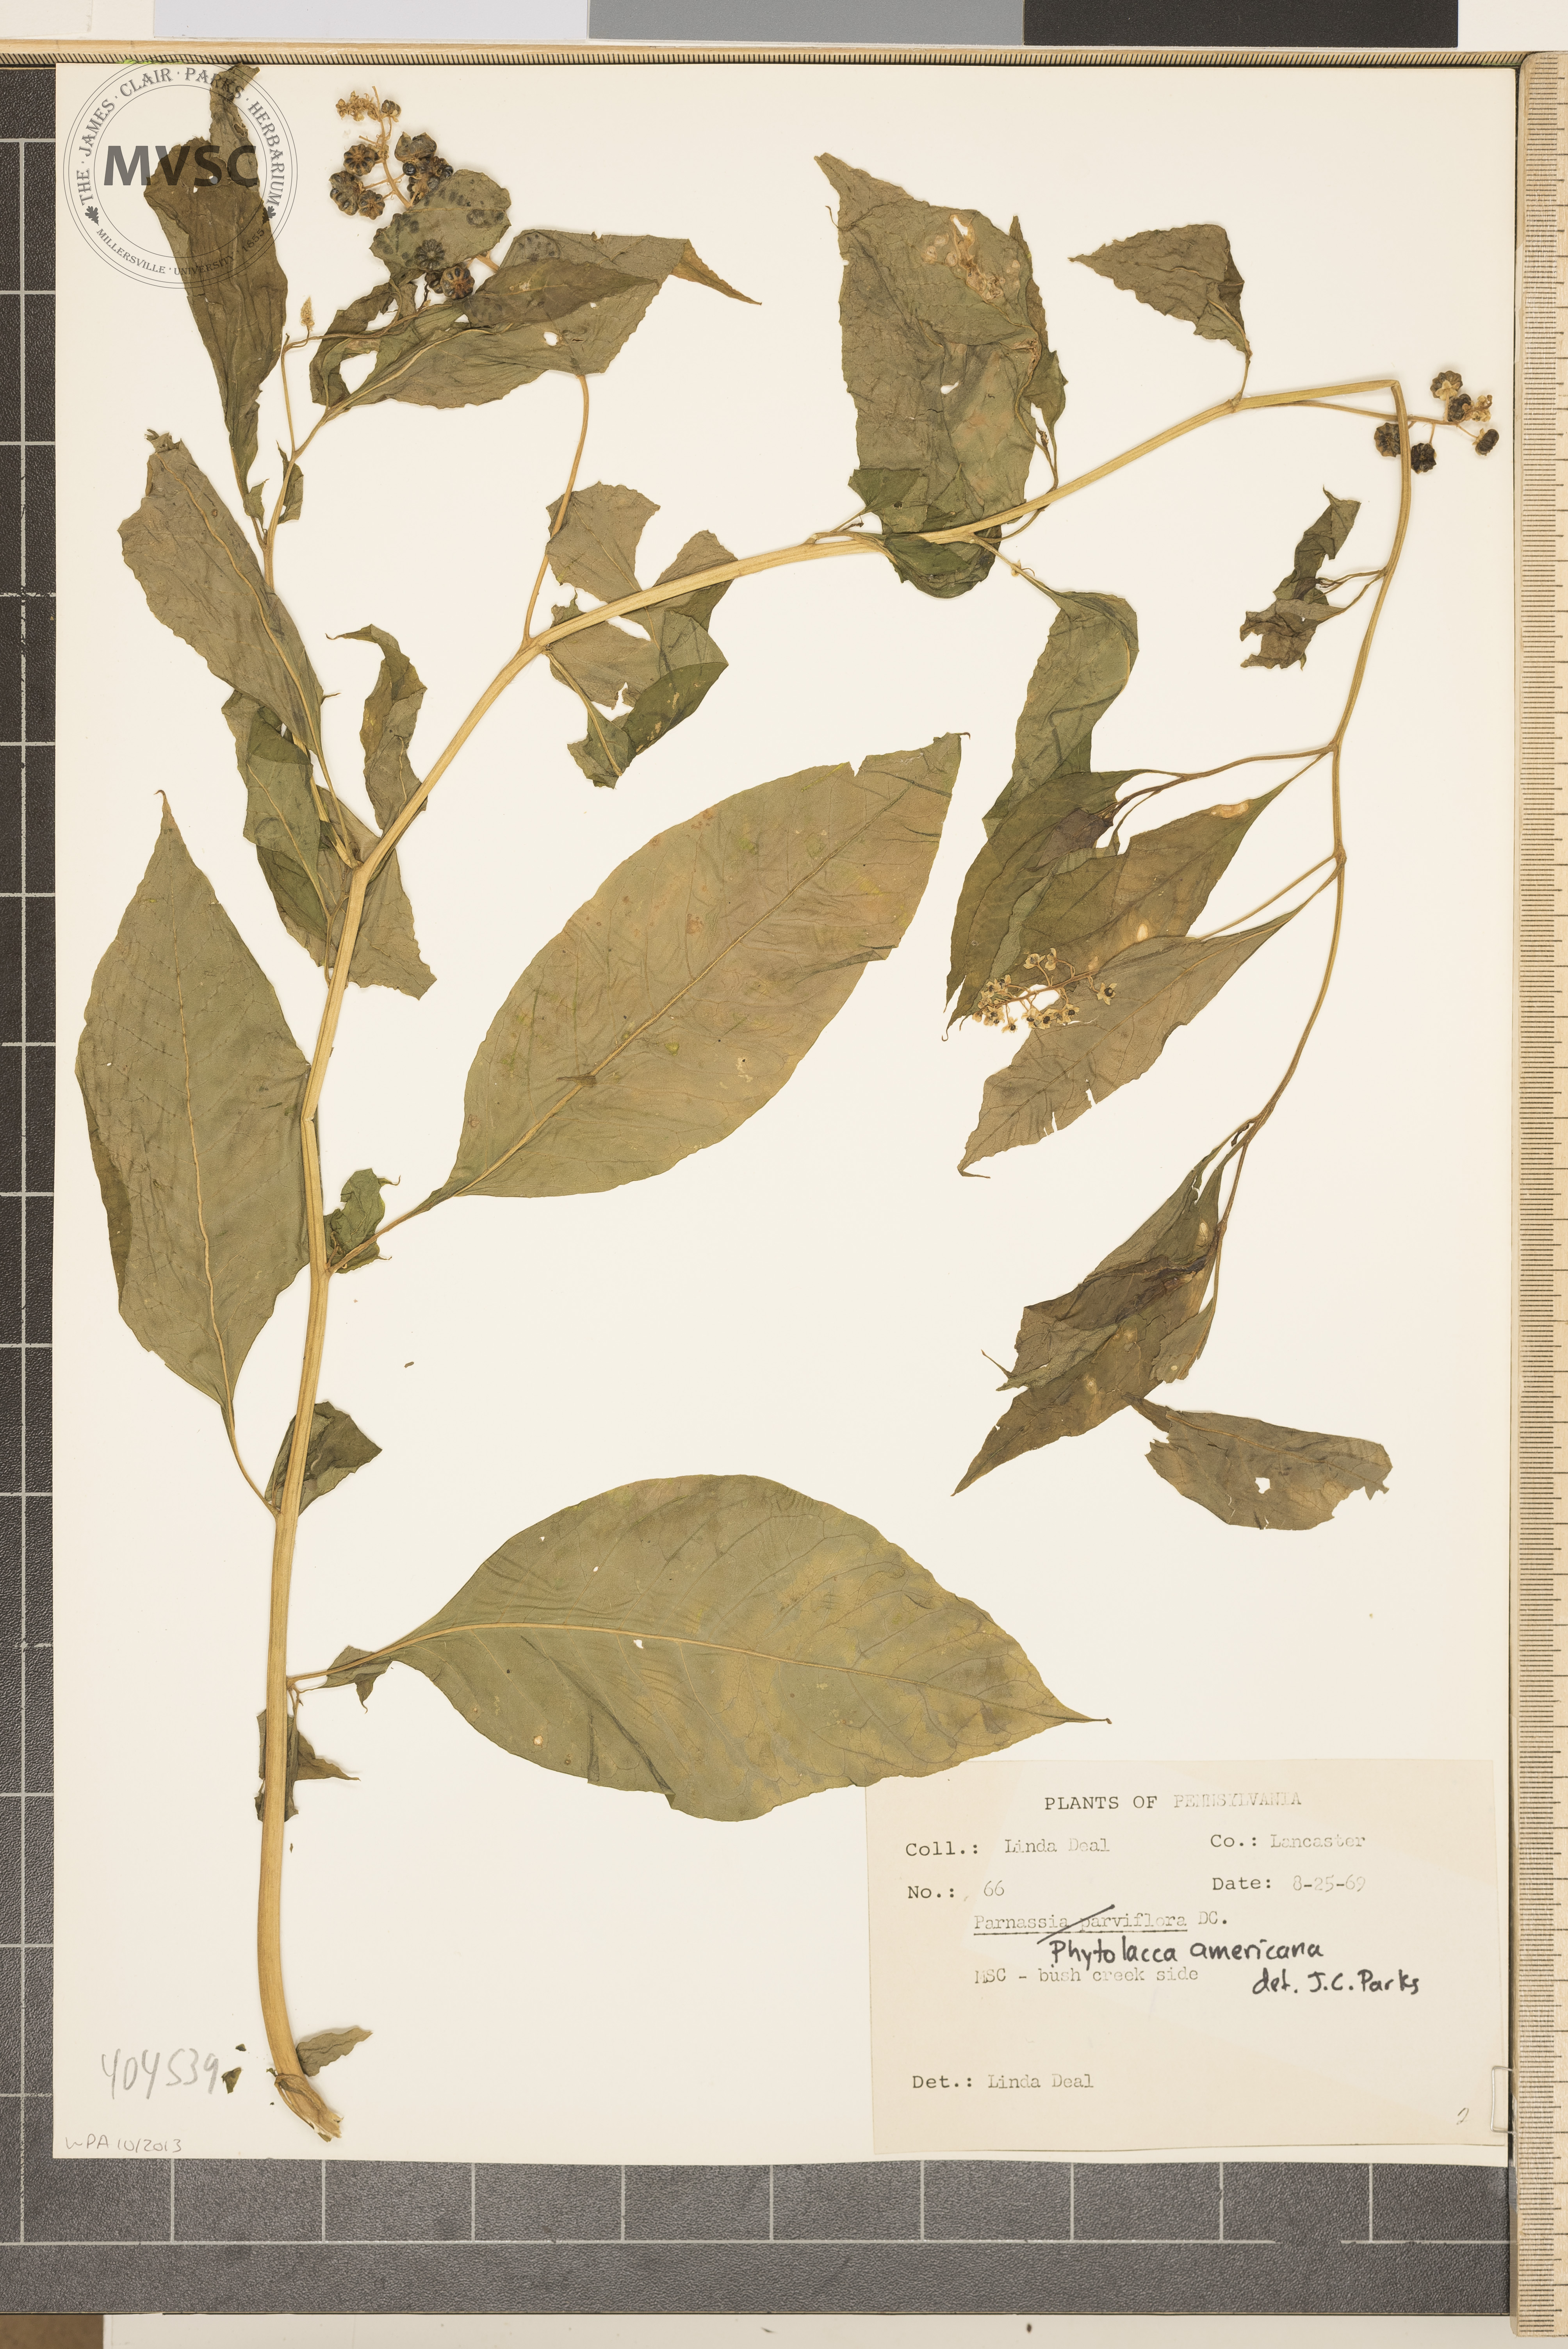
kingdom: Plantae
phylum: Tracheophyta
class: Magnoliopsida
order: Caryophyllales
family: Phytolaccaceae
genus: Phytolacca
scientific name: Phytolacca americana
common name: American pokeweed
